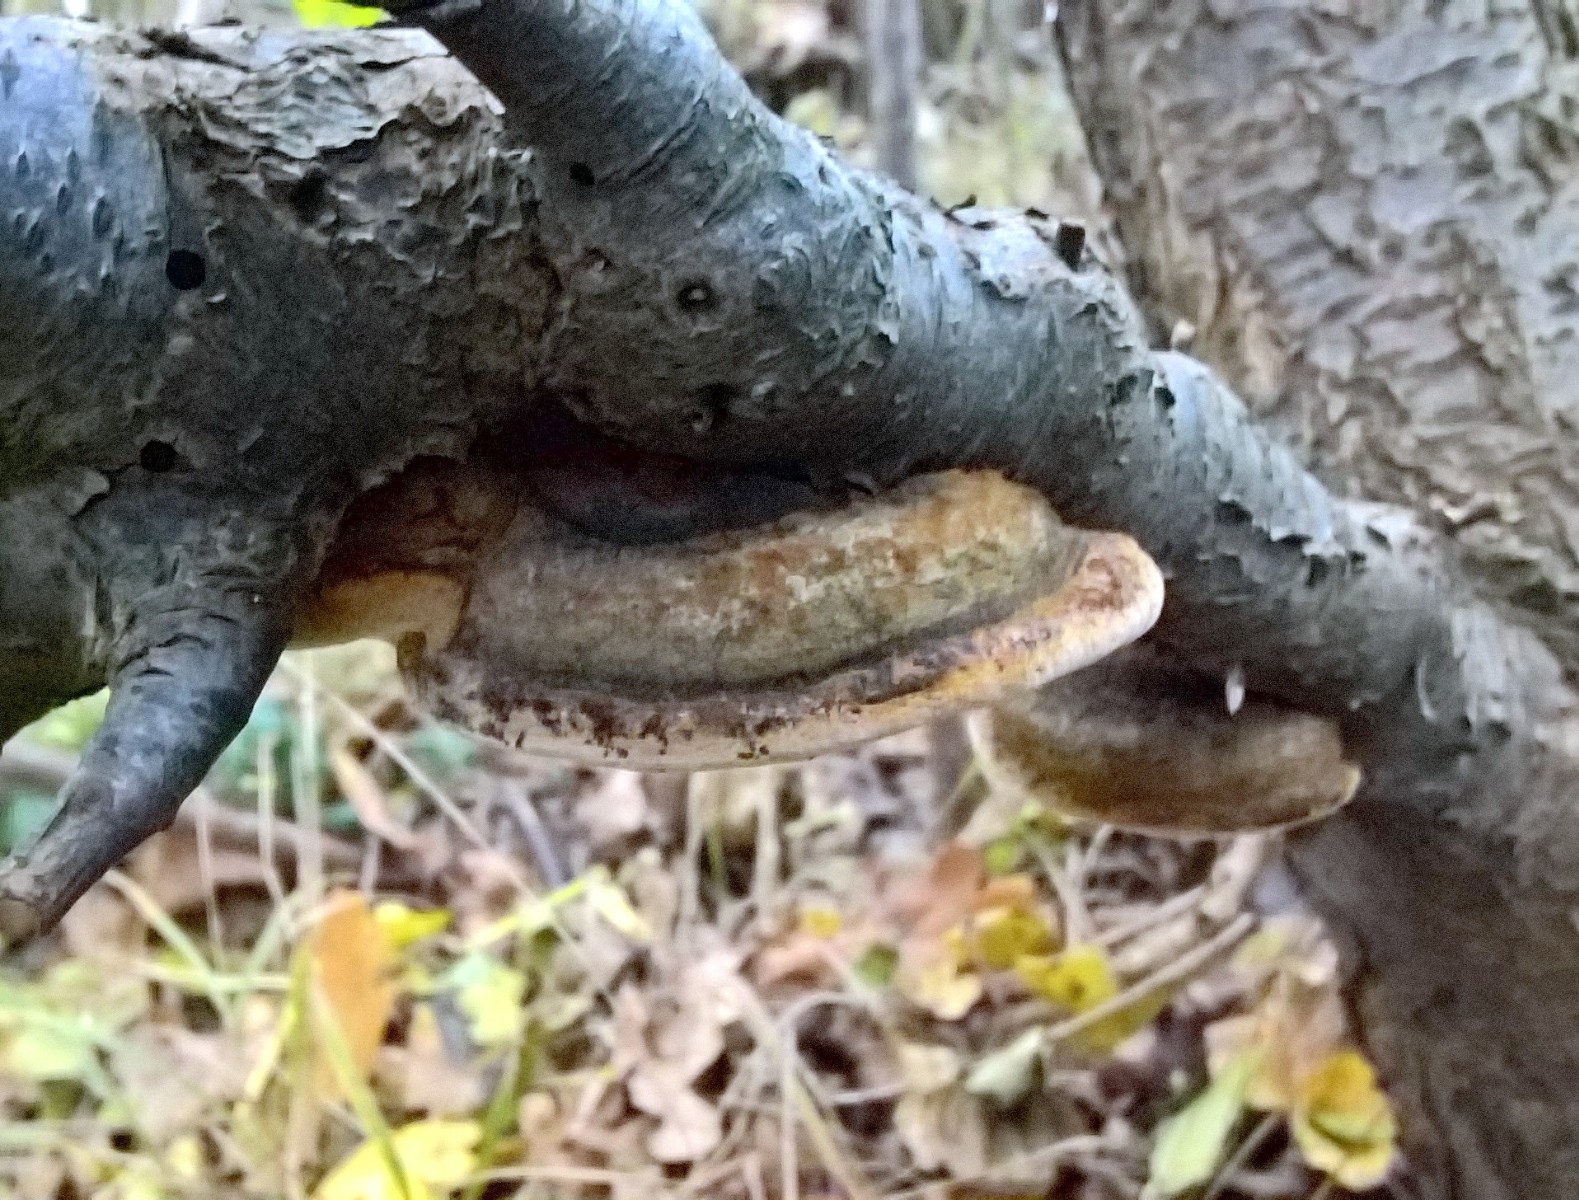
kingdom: Fungi
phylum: Basidiomycota
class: Agaricomycetes
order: Hymenochaetales
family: Hymenochaetaceae
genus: Phellinus
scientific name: Phellinus pomaceus
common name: blomme-ildporesvamp
